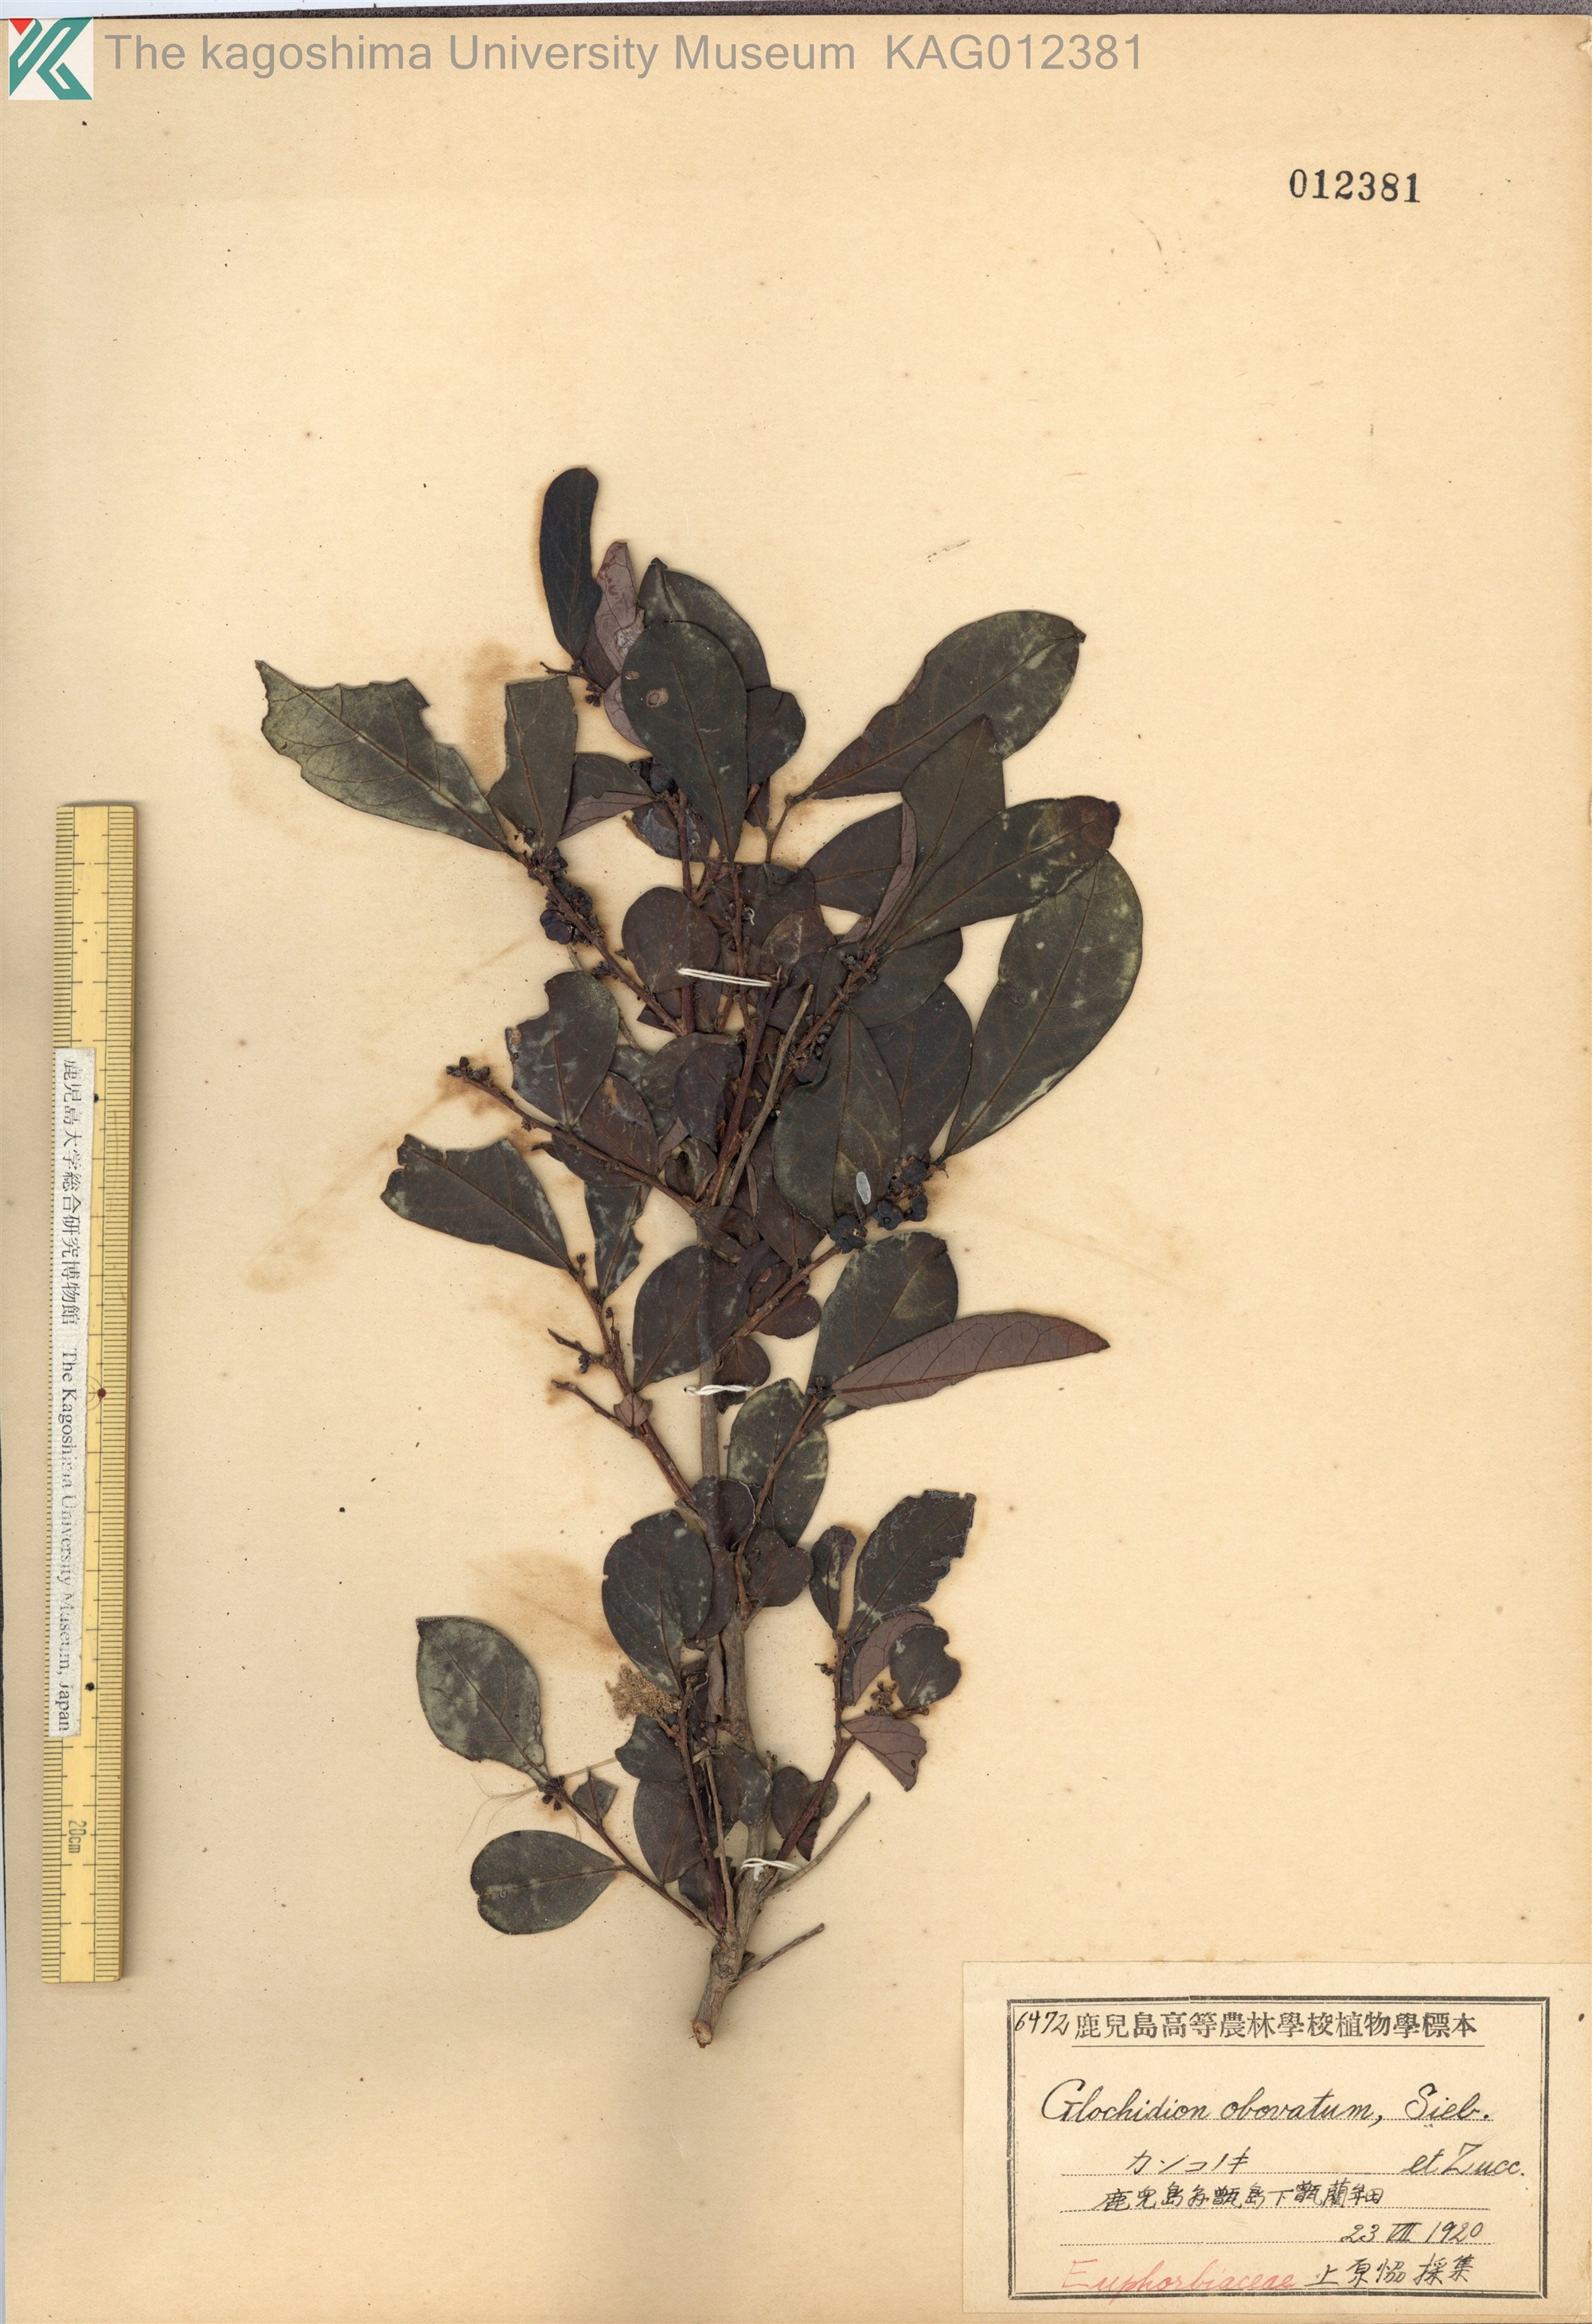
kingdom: Plantae
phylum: Tracheophyta
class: Magnoliopsida
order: Malpighiales
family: Phyllanthaceae
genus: Glochidion
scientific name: Glochidion obovatum
